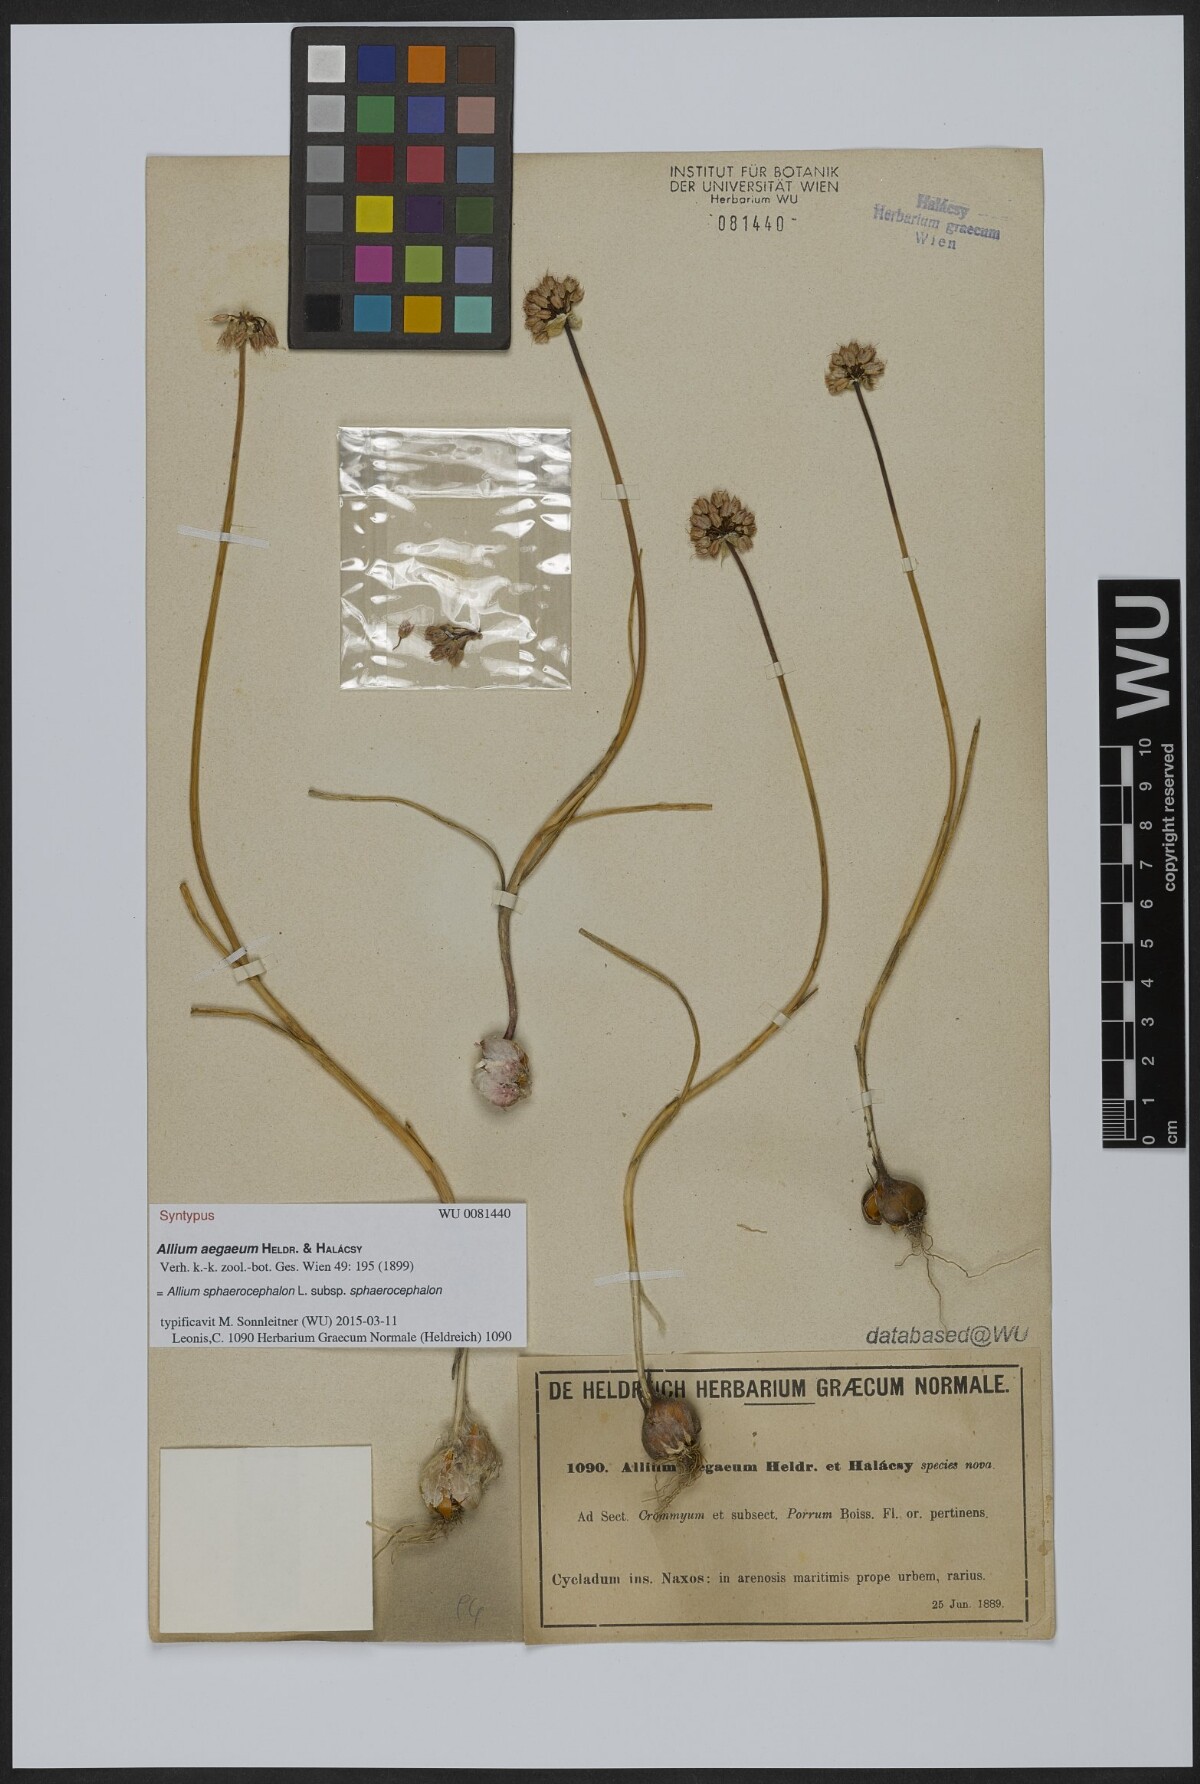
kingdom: Plantae
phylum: Tracheophyta
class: Liliopsida
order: Asparagales
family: Amaryllidaceae
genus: Allium
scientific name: Allium sphaerocephalon
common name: Round-headed leek
